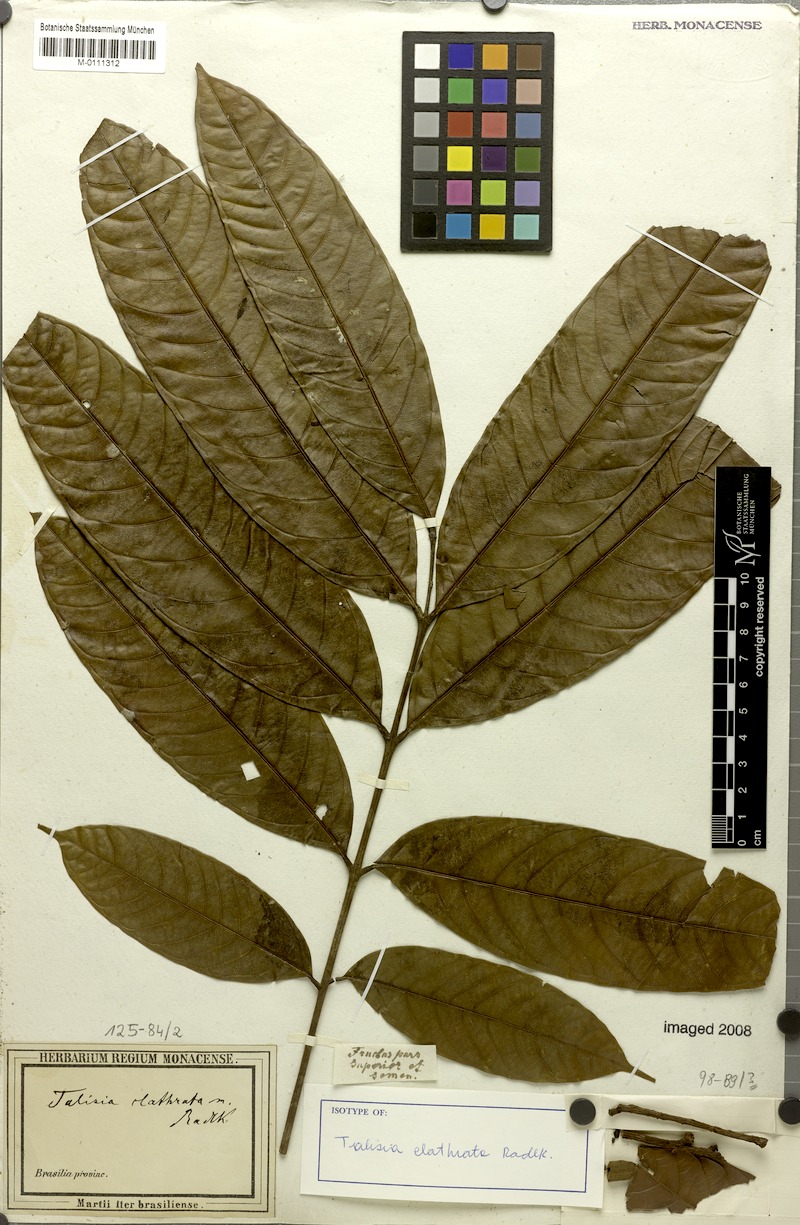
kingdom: Plantae
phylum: Tracheophyta
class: Magnoliopsida
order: Sapindales
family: Sapindaceae
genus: Talisia
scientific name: Talisia clathrata
